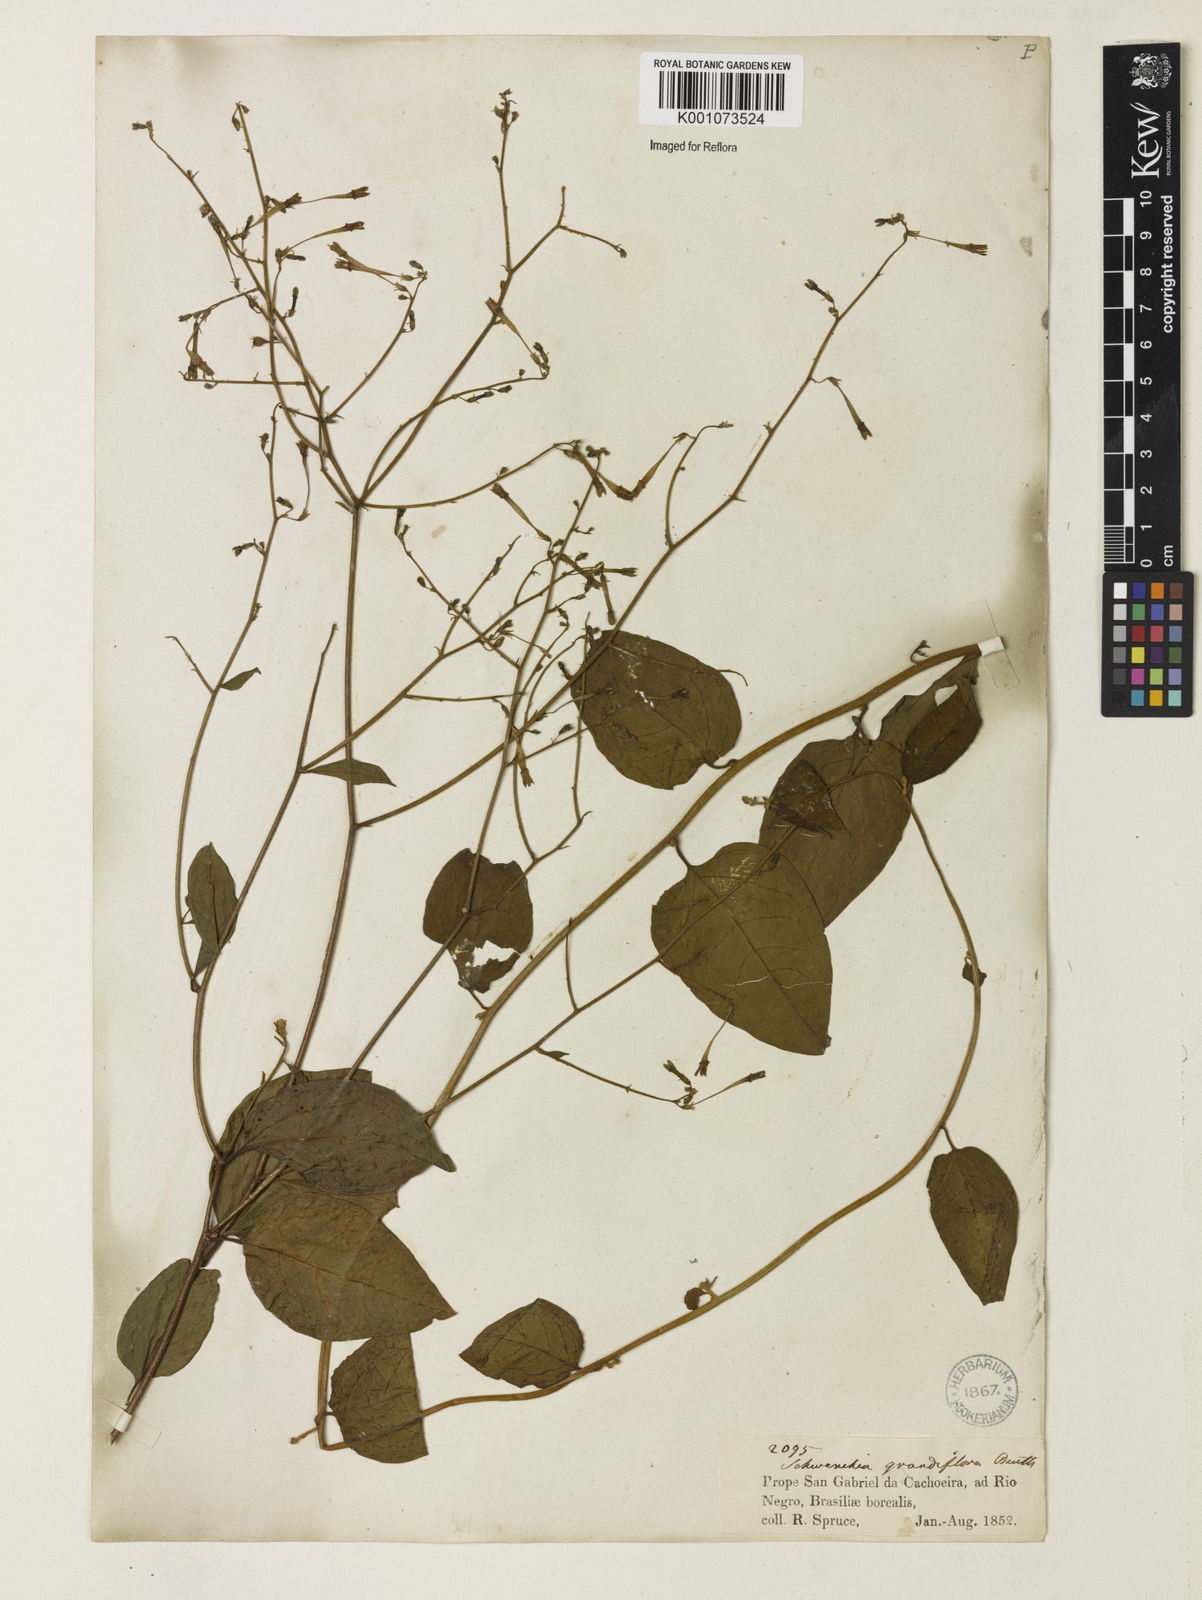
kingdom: Plantae
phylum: Tracheophyta
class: Magnoliopsida
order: Solanales
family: Solanaceae
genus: Schwenckia
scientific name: Schwenckia grandiflora
